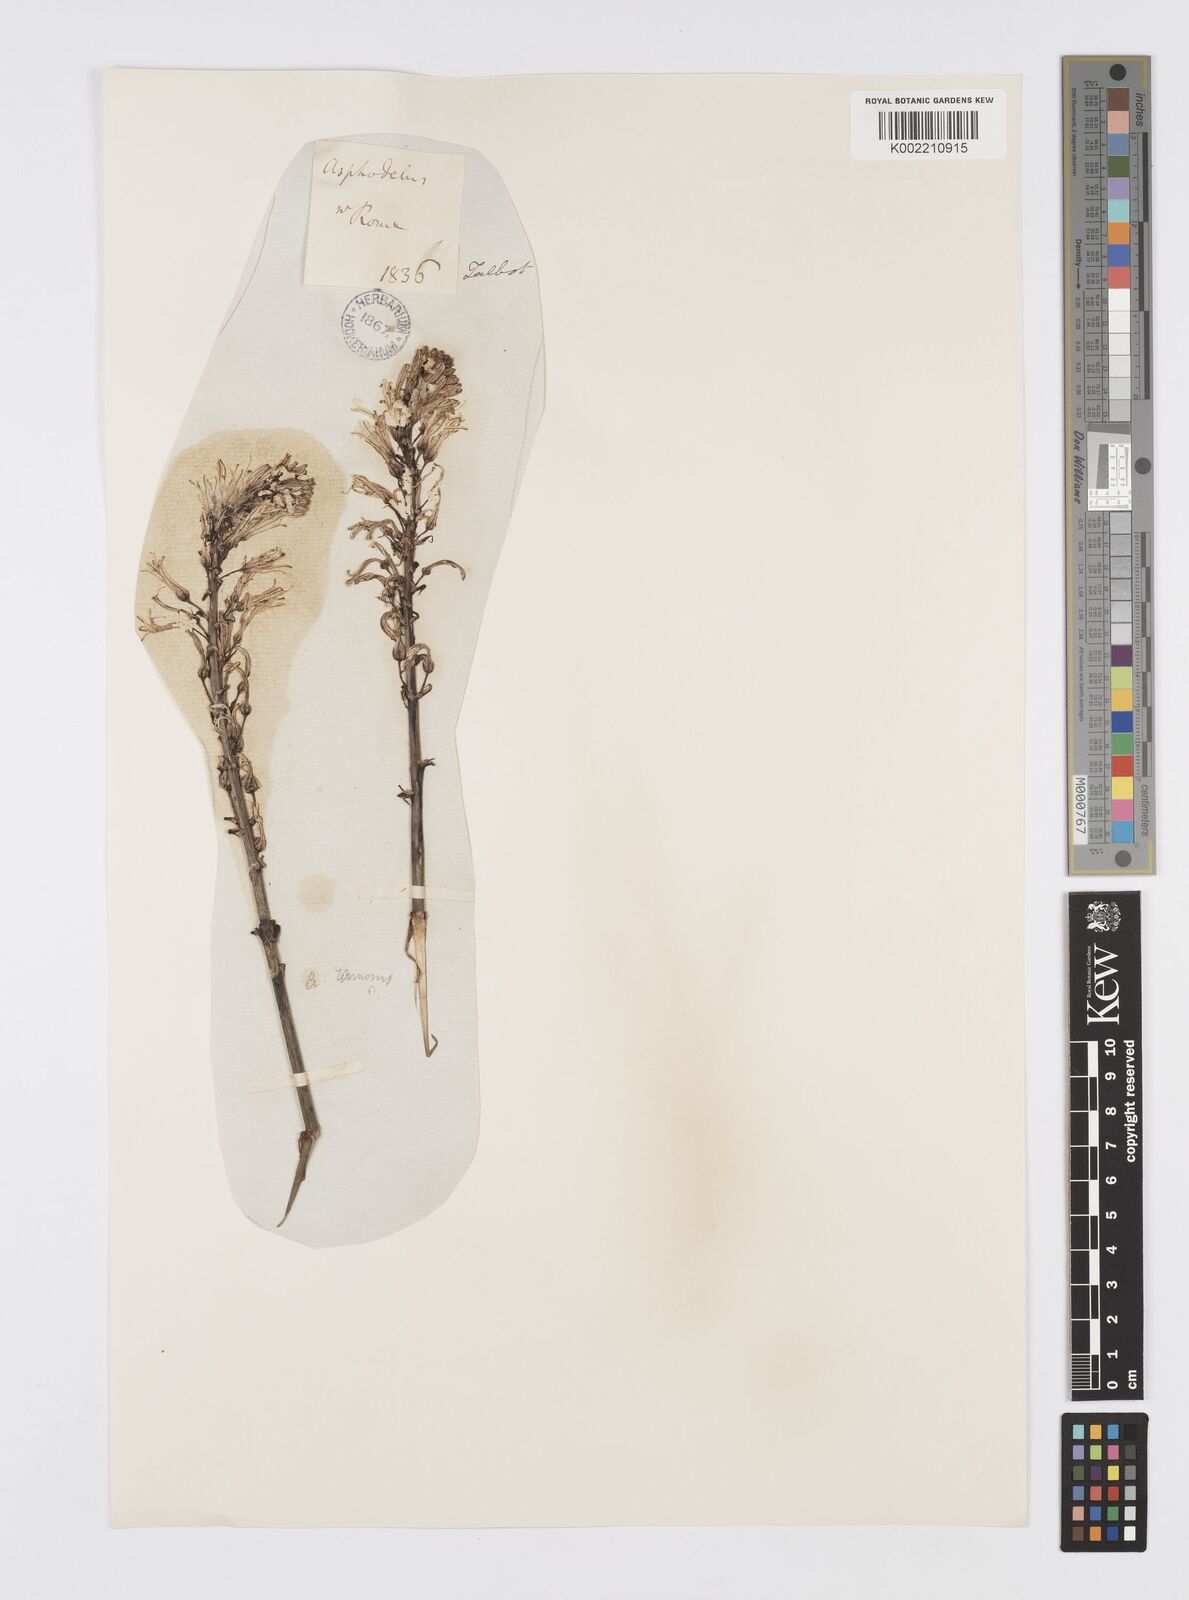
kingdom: Plantae
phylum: Tracheophyta
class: Liliopsida
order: Asparagales
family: Asphodelaceae
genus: Asphodelus
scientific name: Asphodelus ramosus
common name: Silverrod
